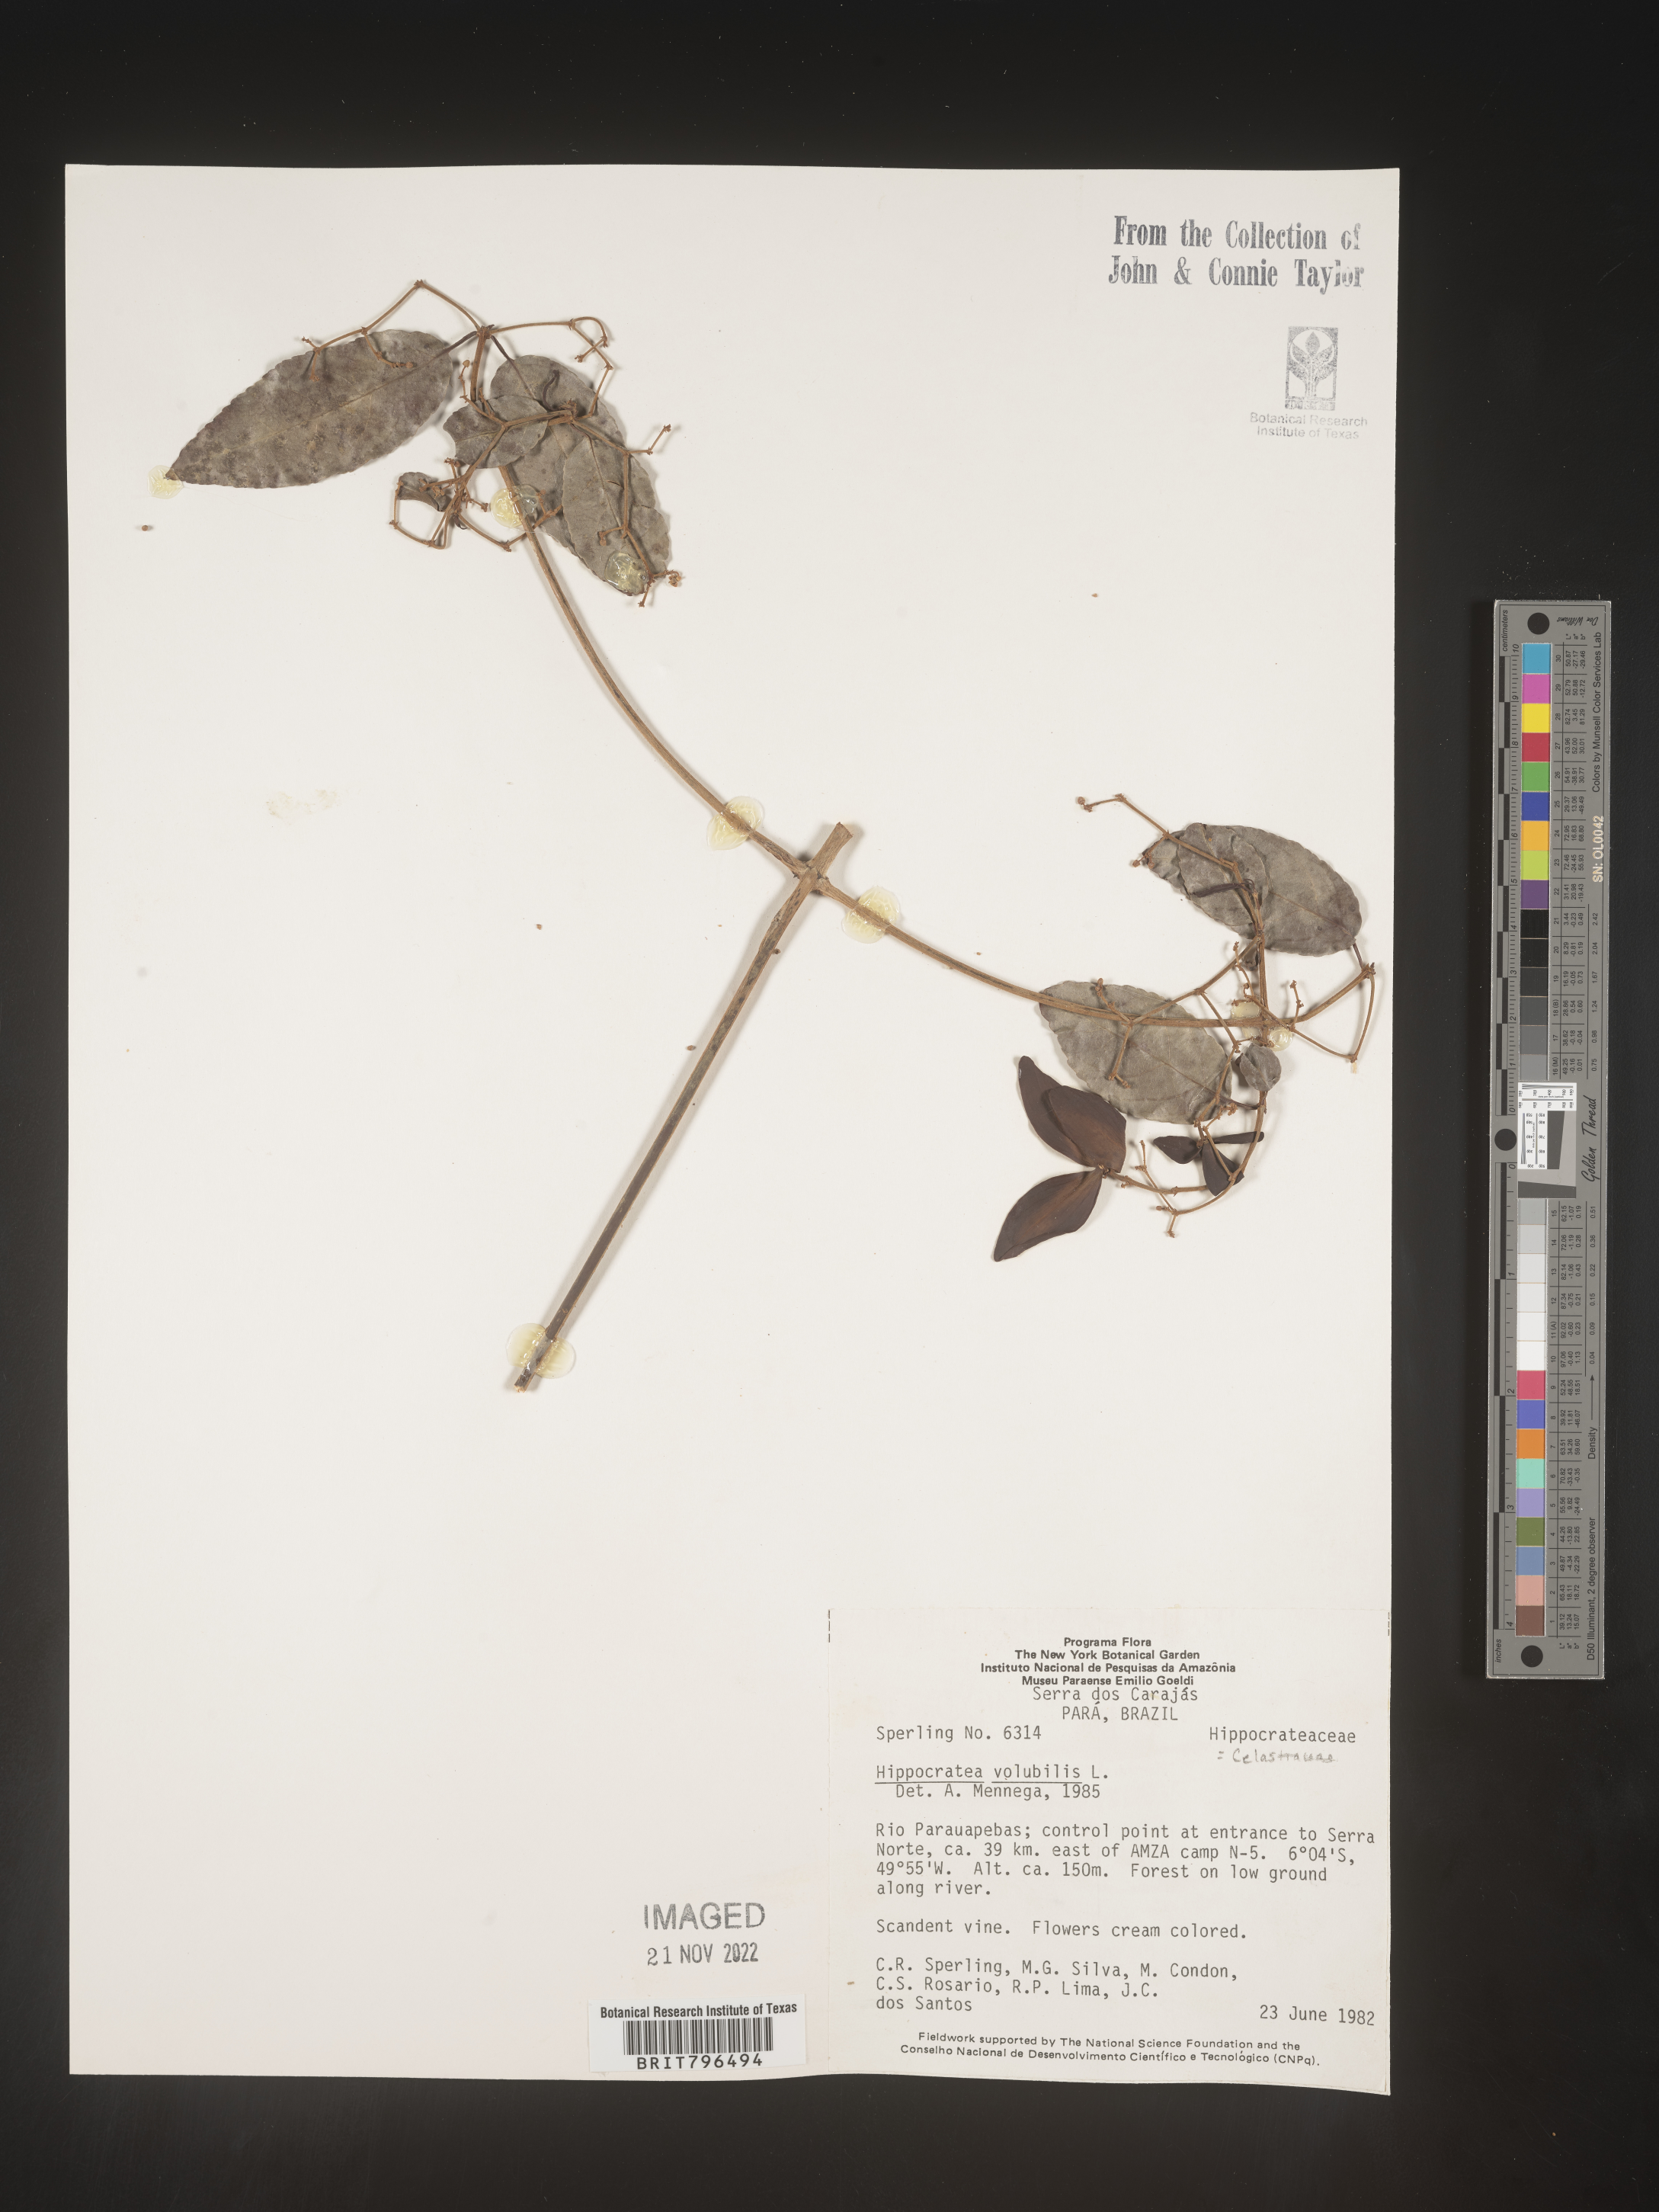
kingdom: Plantae
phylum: Tracheophyta
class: Magnoliopsida
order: Celastrales
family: Celastraceae
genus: Hippocratea
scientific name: Hippocratea
